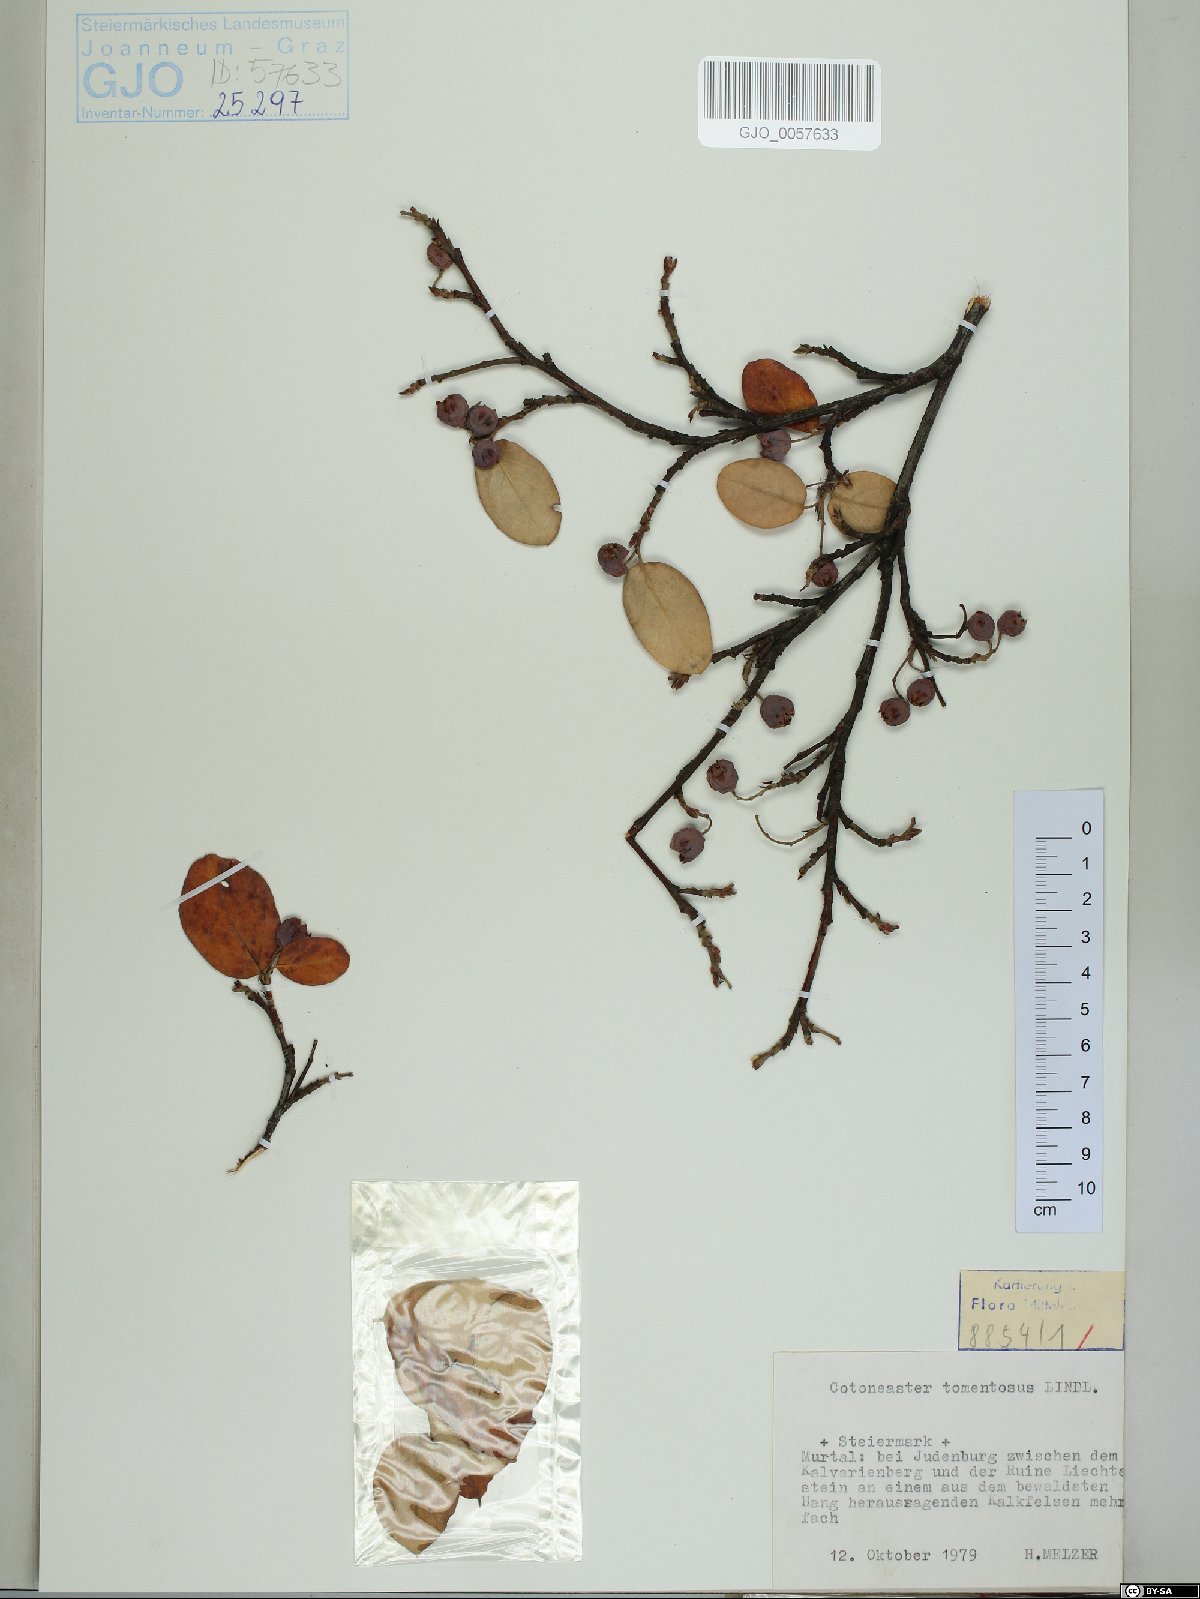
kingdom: Plantae
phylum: Tracheophyta
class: Magnoliopsida
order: Rosales
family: Rosaceae
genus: Cotoneaster
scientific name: Cotoneaster tomentosus
